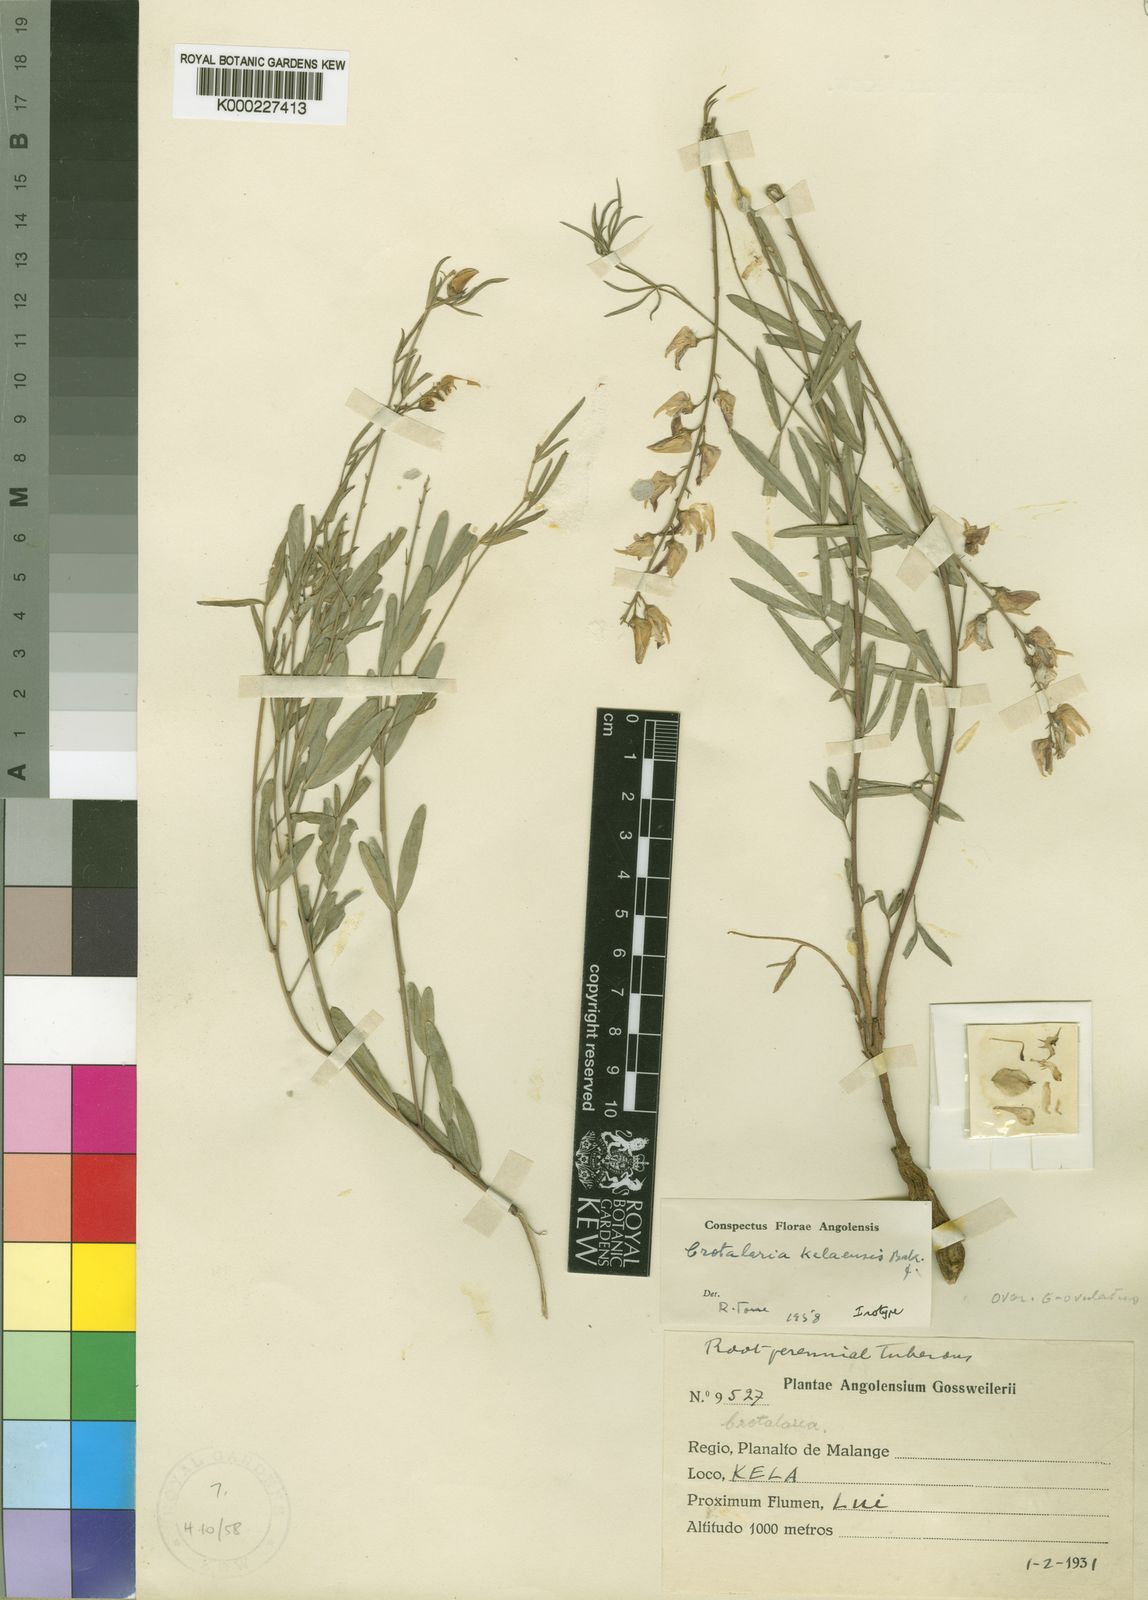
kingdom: Plantae
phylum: Tracheophyta
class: Magnoliopsida
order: Fabales
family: Fabaceae
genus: Crotalaria
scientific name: Crotalaria kelaensis
